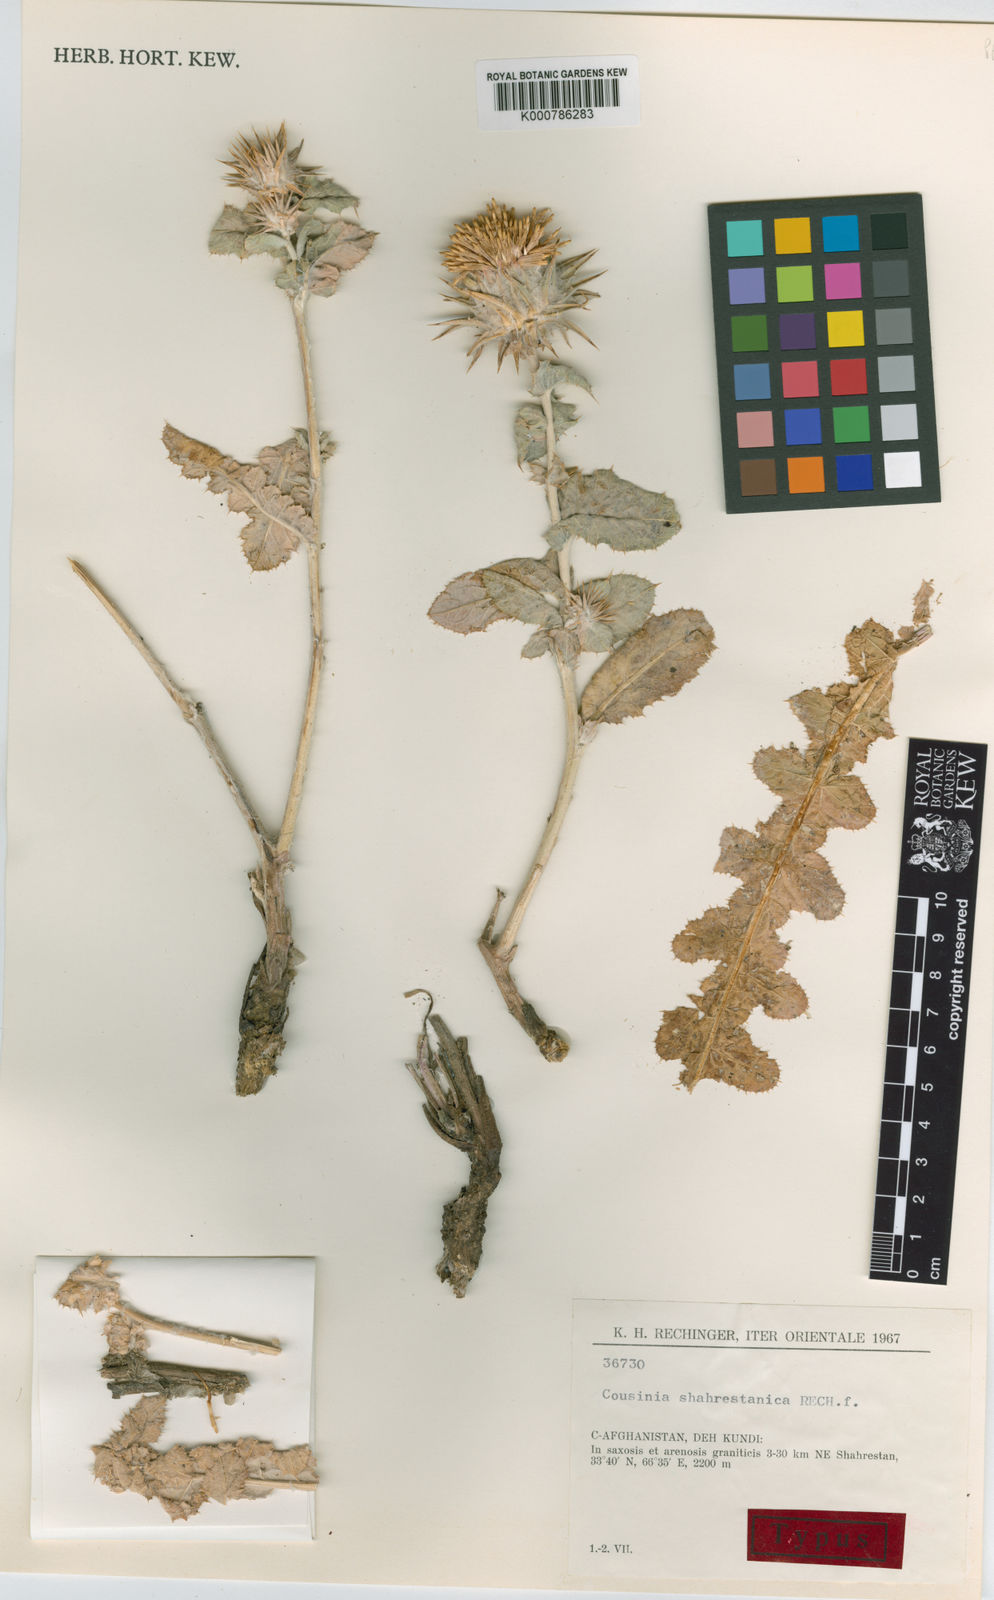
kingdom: Plantae
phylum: Tracheophyta
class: Magnoliopsida
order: Asterales
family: Asteraceae
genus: Cousinia
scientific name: Cousinia shahrestanica
